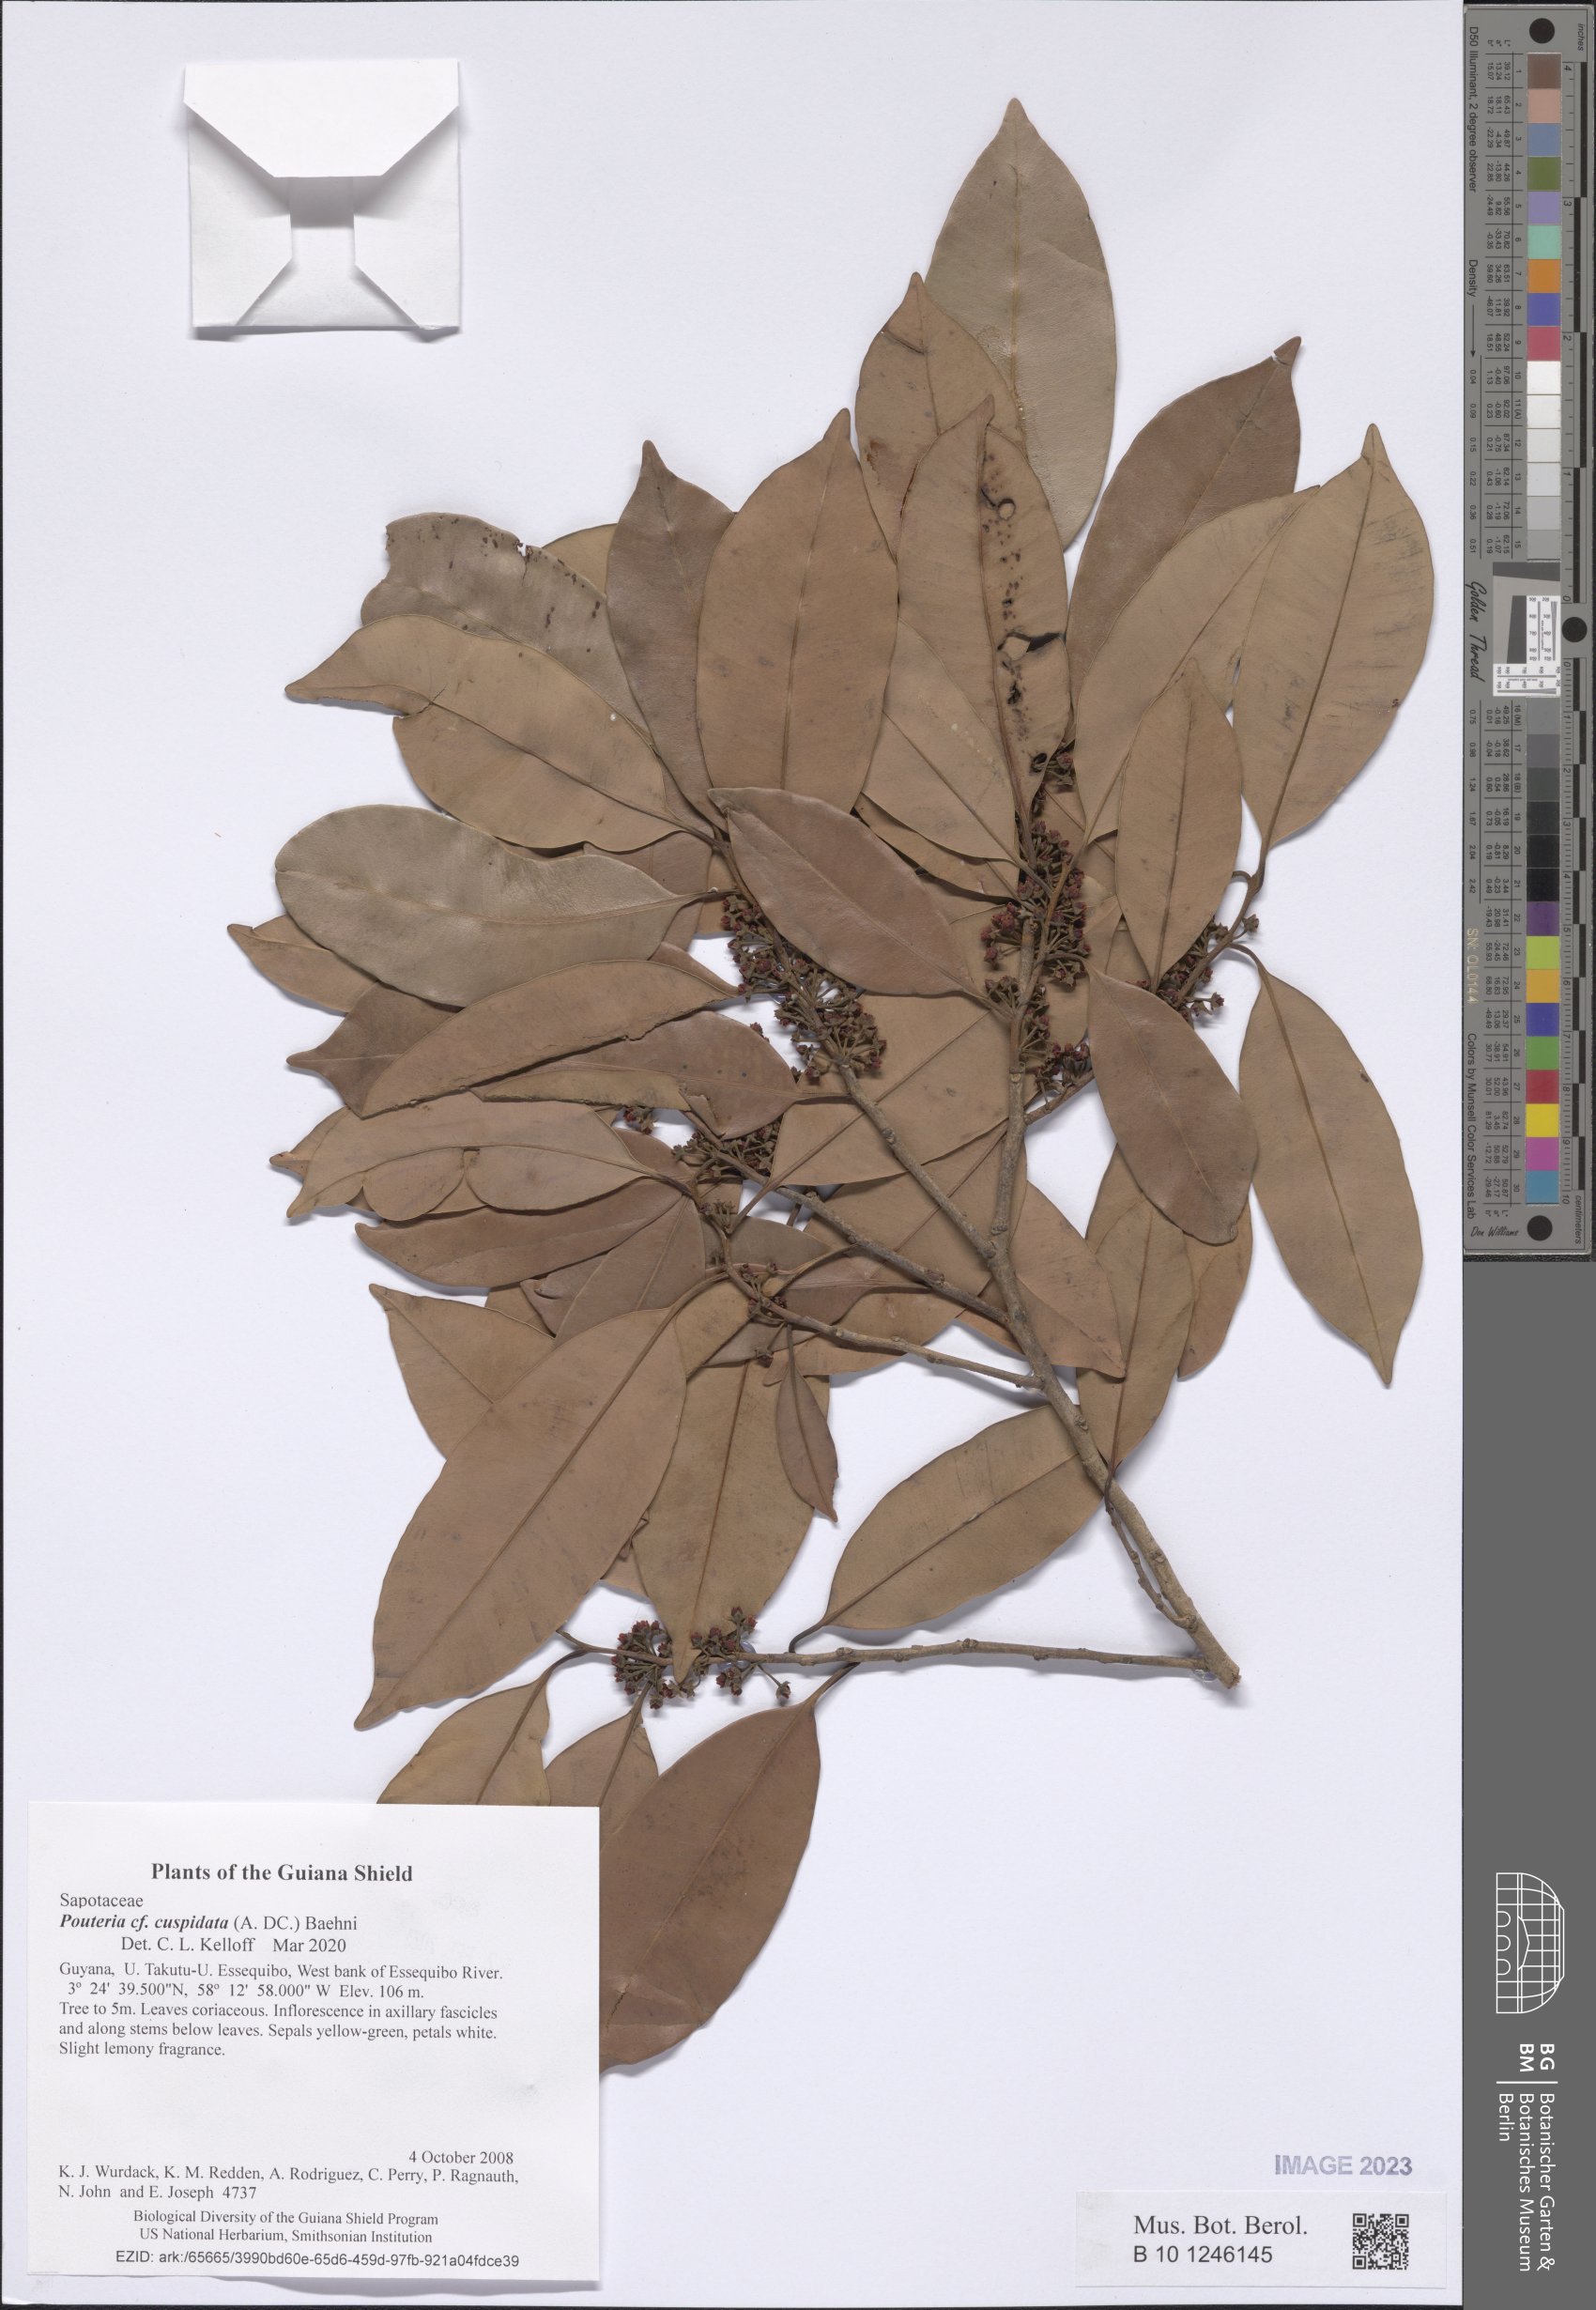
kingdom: Plantae
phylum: Tracheophyta
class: Magnoliopsida
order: Ericales
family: Sapotaceae
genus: Pouteria
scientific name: Pouteria cuspidata
